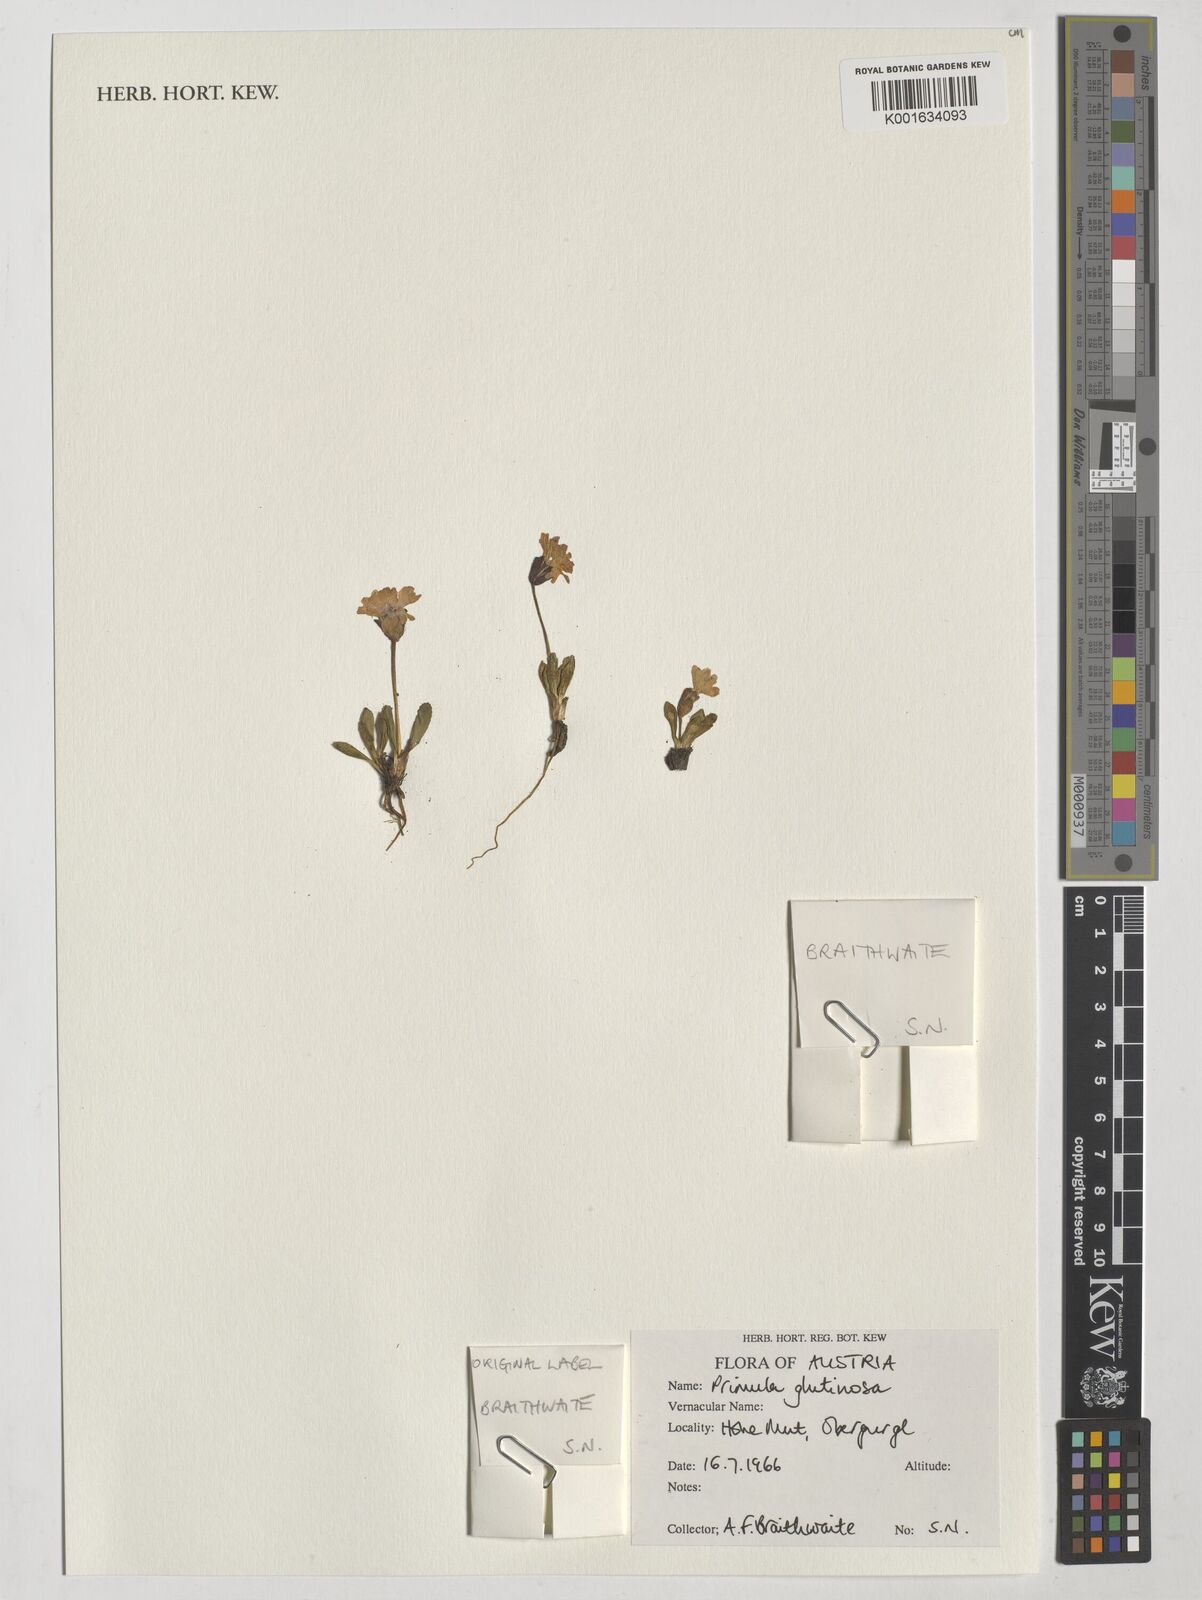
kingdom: Plantae
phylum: Tracheophyta
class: Magnoliopsida
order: Ericales
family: Primulaceae
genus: Primula
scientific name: Primula glutinosa
